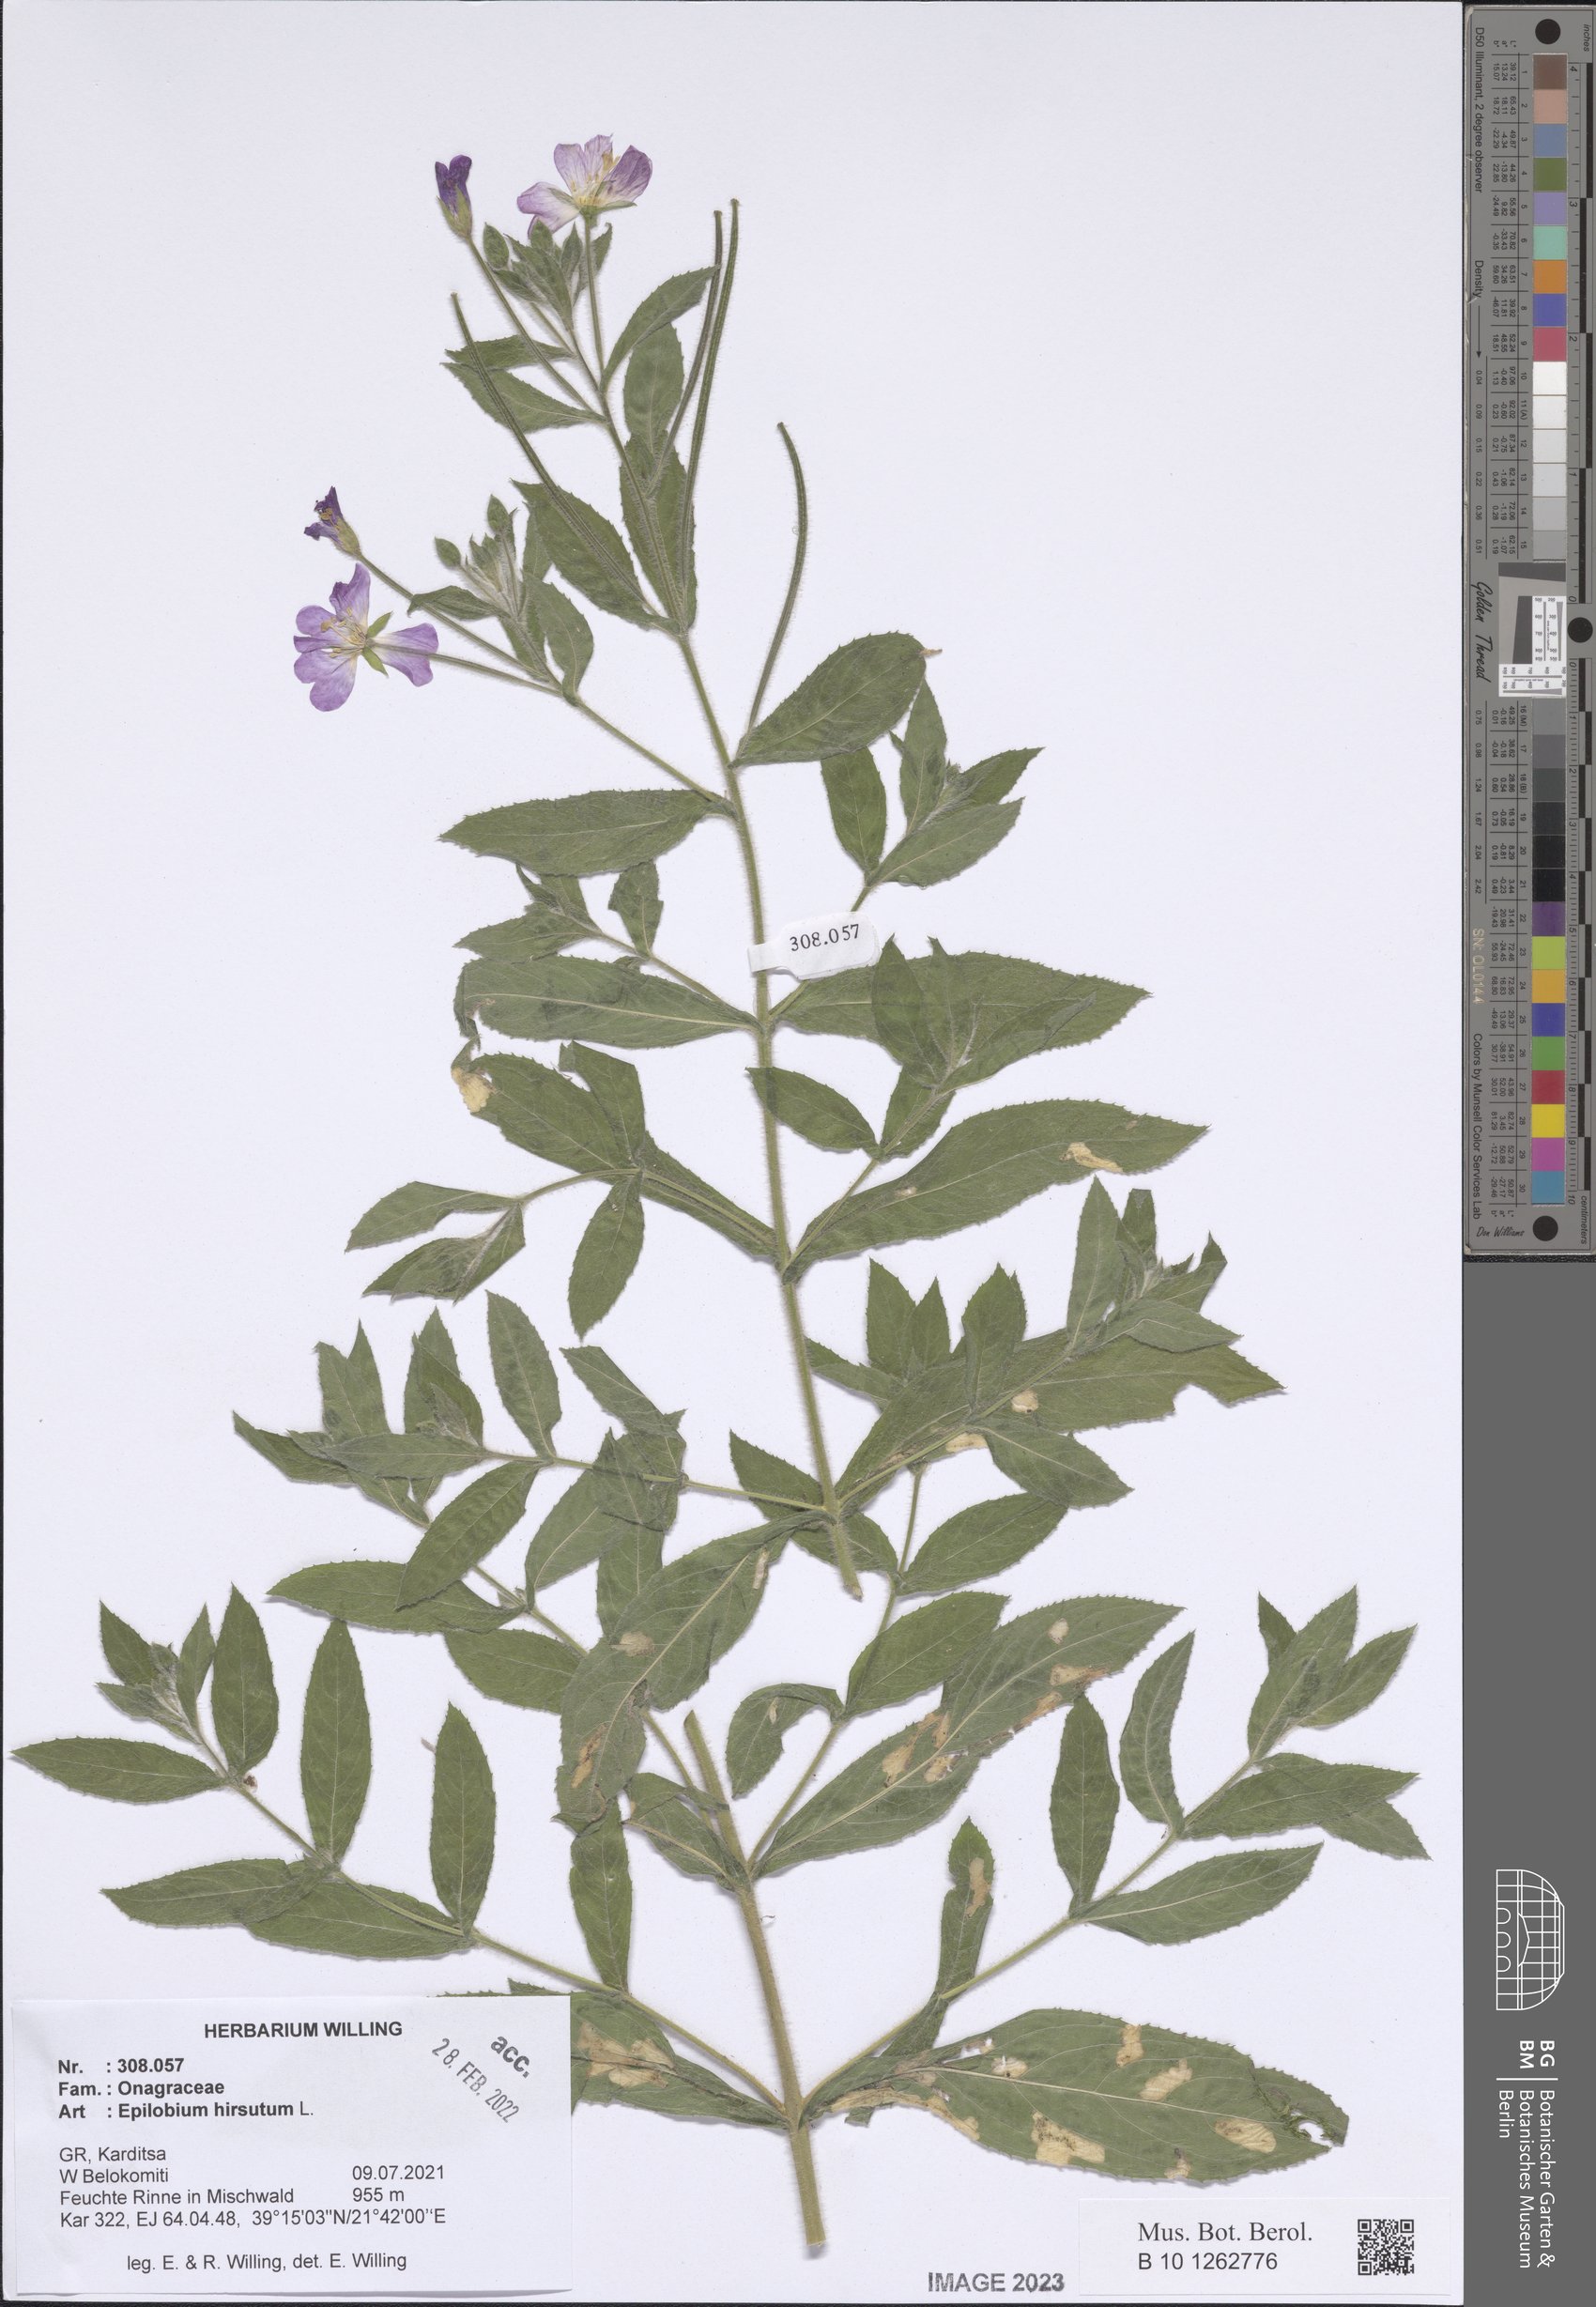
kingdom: Plantae
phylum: Tracheophyta
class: Magnoliopsida
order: Myrtales
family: Onagraceae
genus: Epilobium
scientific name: Epilobium hirsutum
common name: Great willowherb
